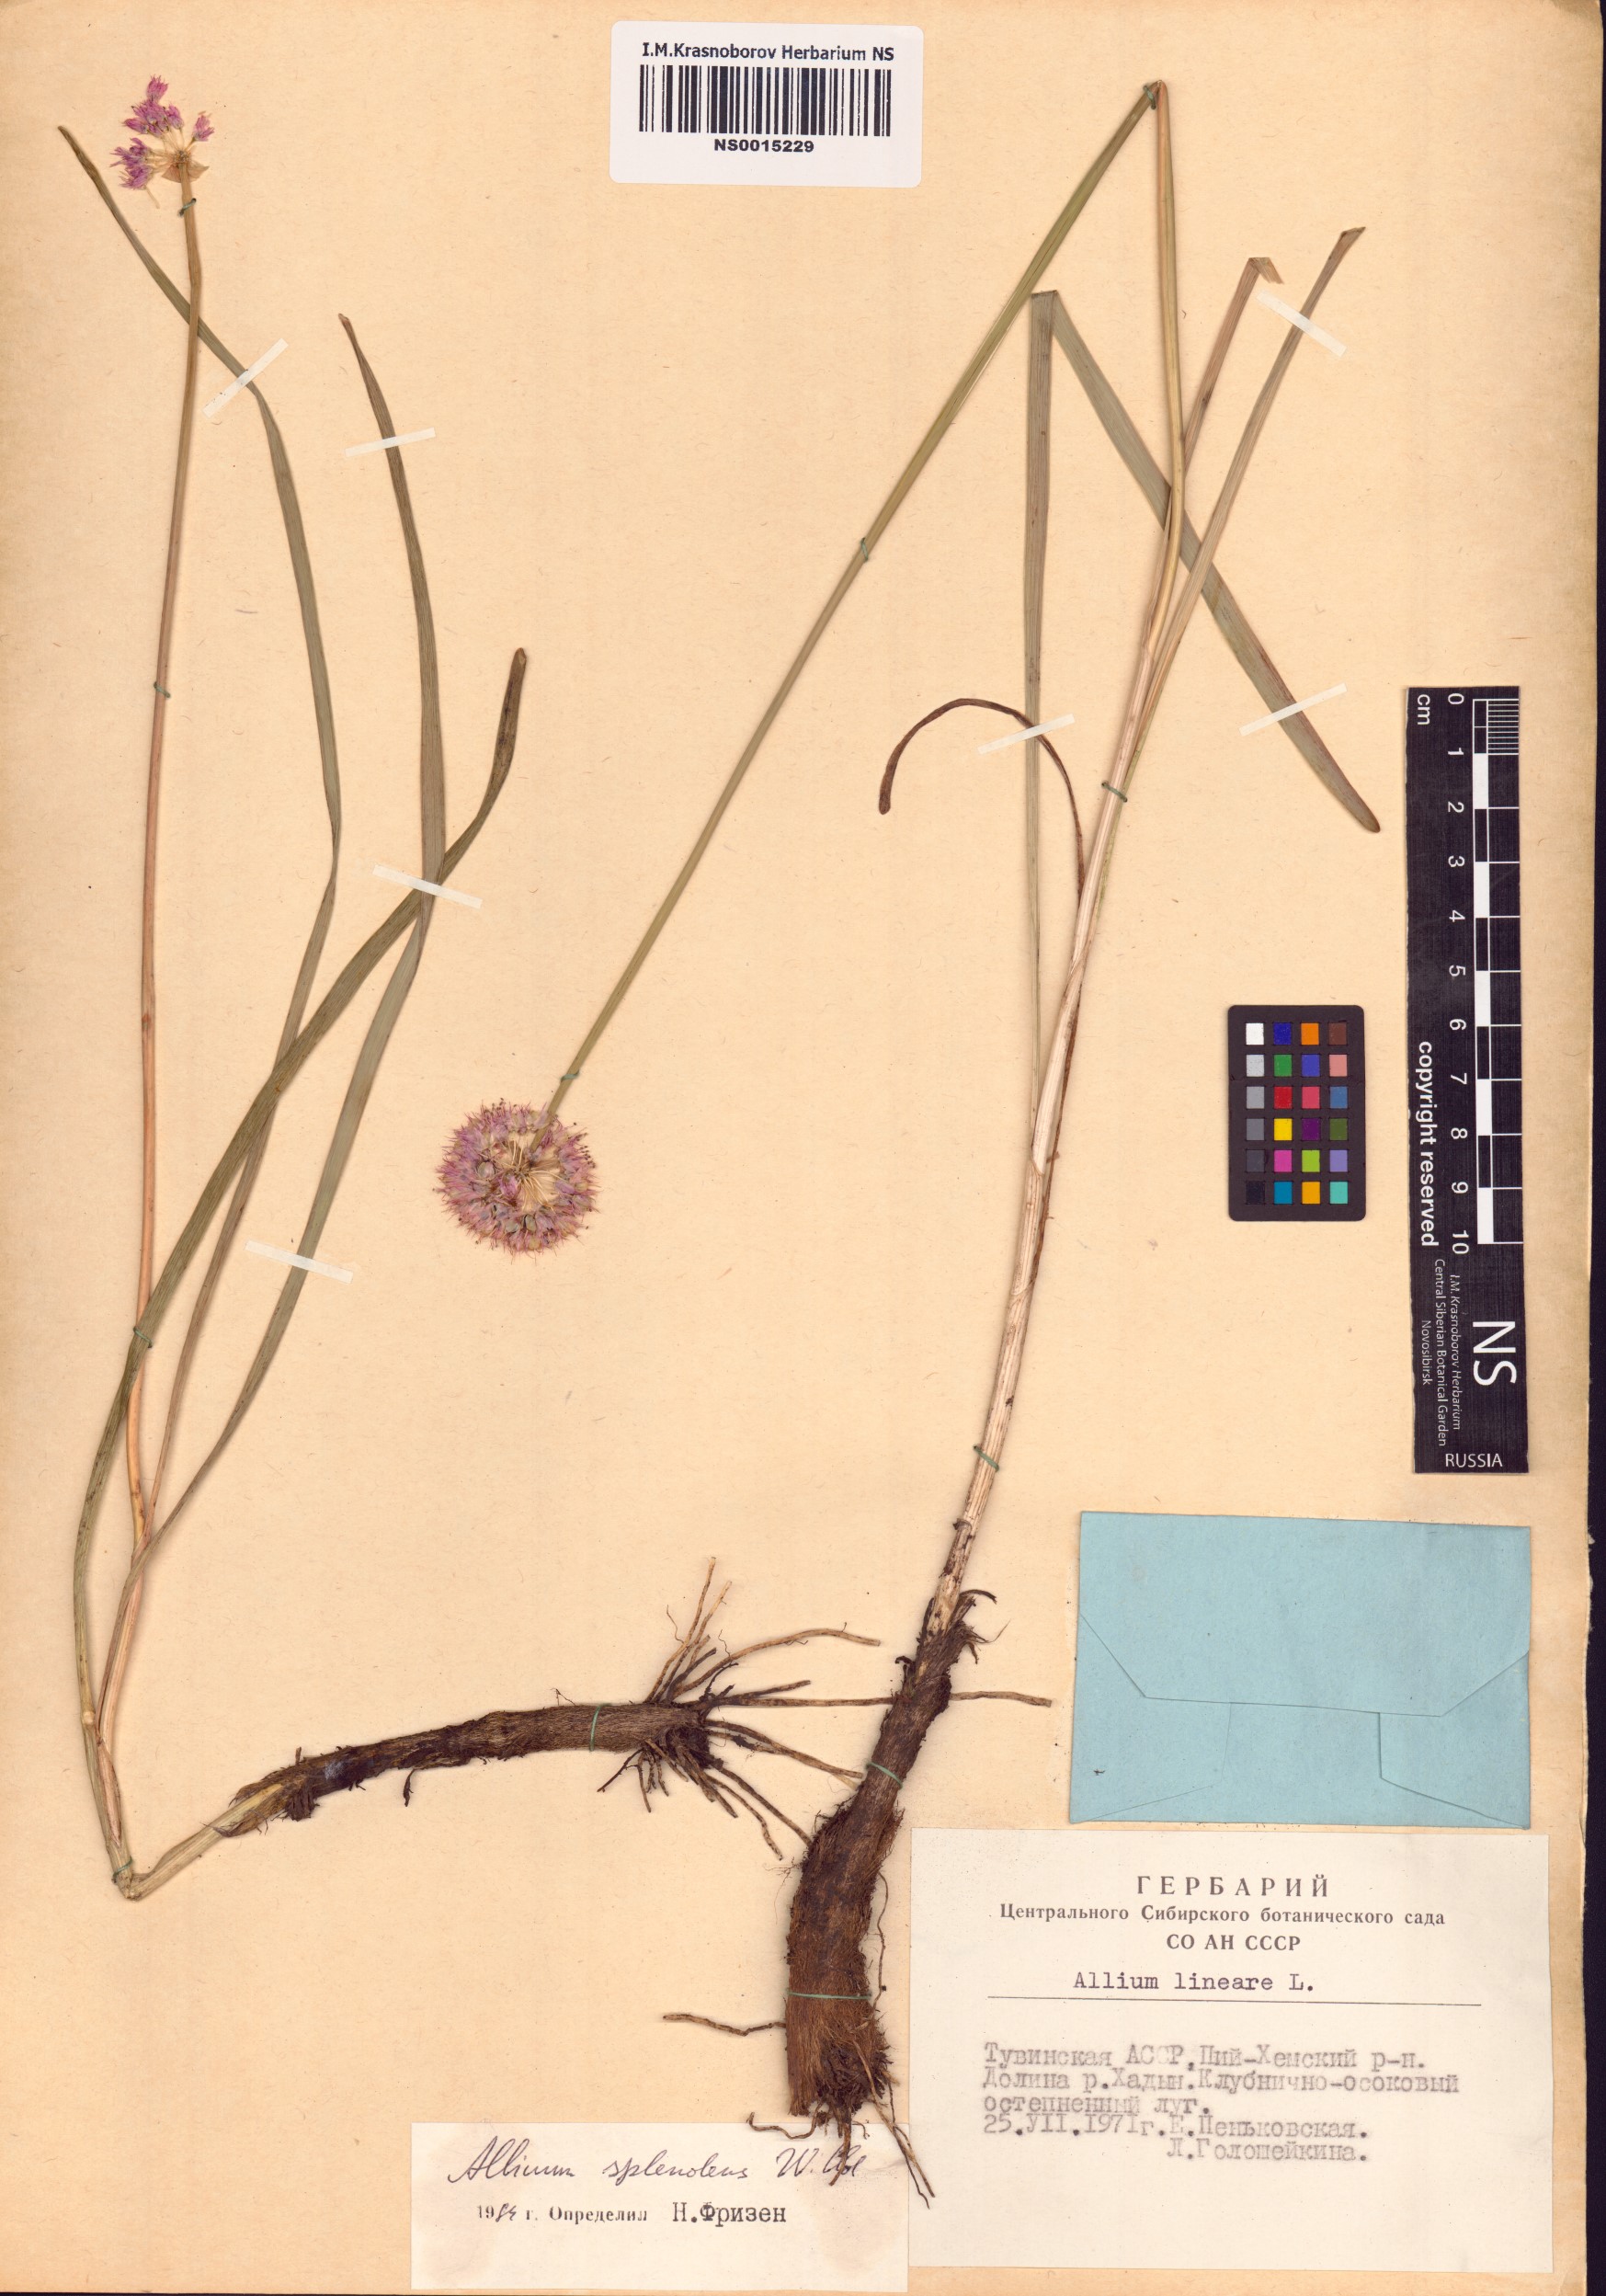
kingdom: Plantae
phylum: Tracheophyta
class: Liliopsida
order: Asparagales
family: Amaryllidaceae
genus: Allium
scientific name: Allium splendens
